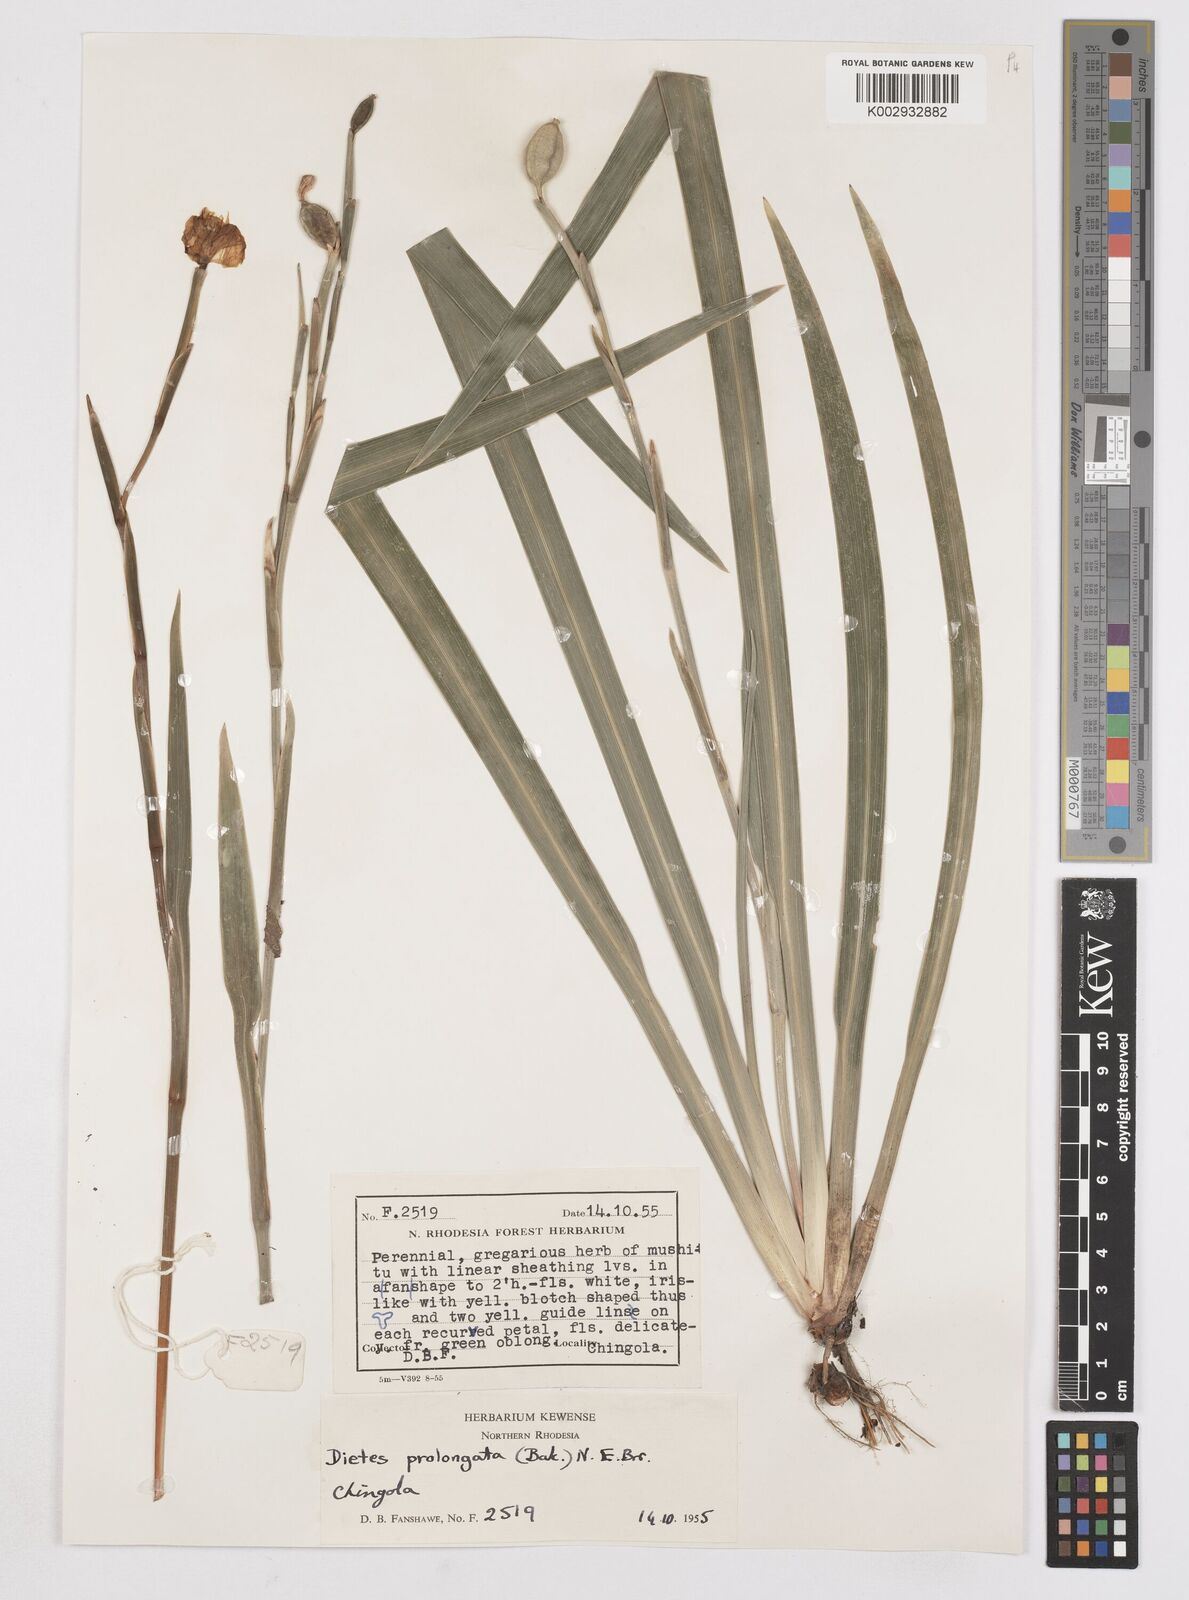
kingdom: Plantae
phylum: Tracheophyta
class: Liliopsida
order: Asparagales
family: Iridaceae
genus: Dietes
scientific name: Dietes iridioides
